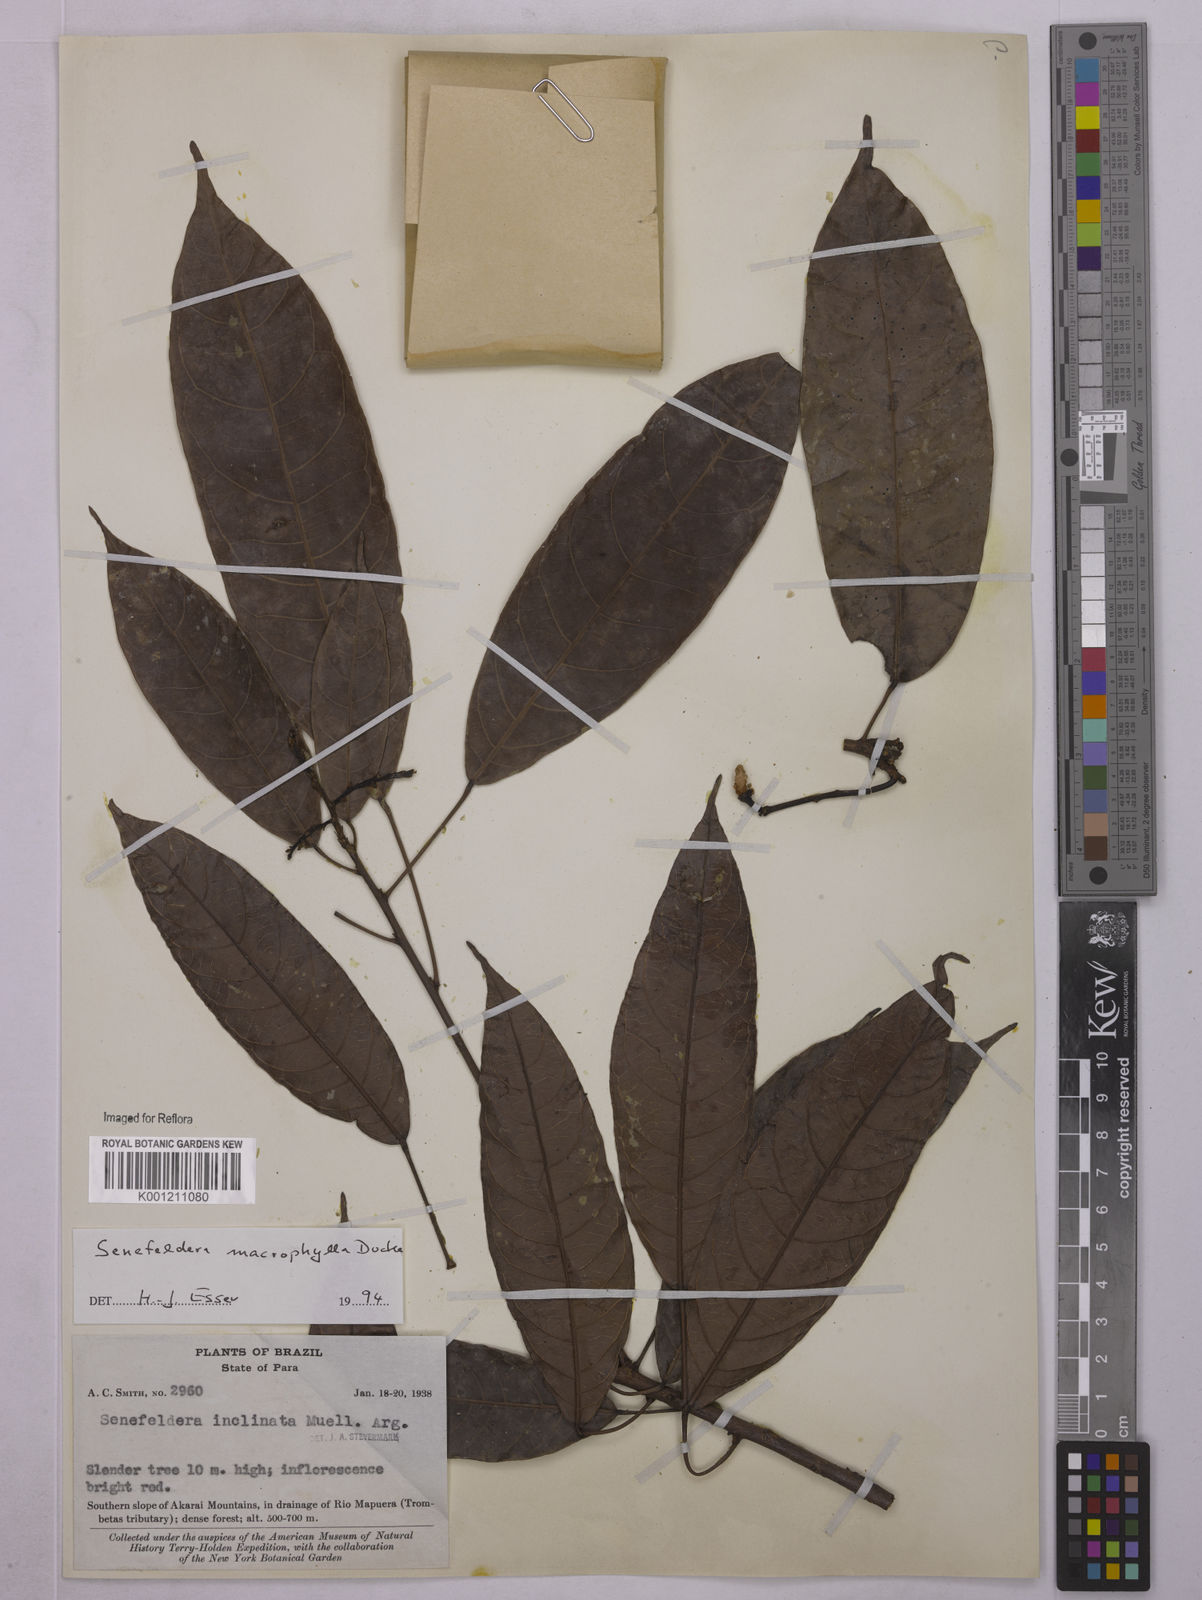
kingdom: Plantae
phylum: Tracheophyta
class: Magnoliopsida
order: Malpighiales
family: Euphorbiaceae
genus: Rhodothyrsus
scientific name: Rhodothyrsus macrophyllus
